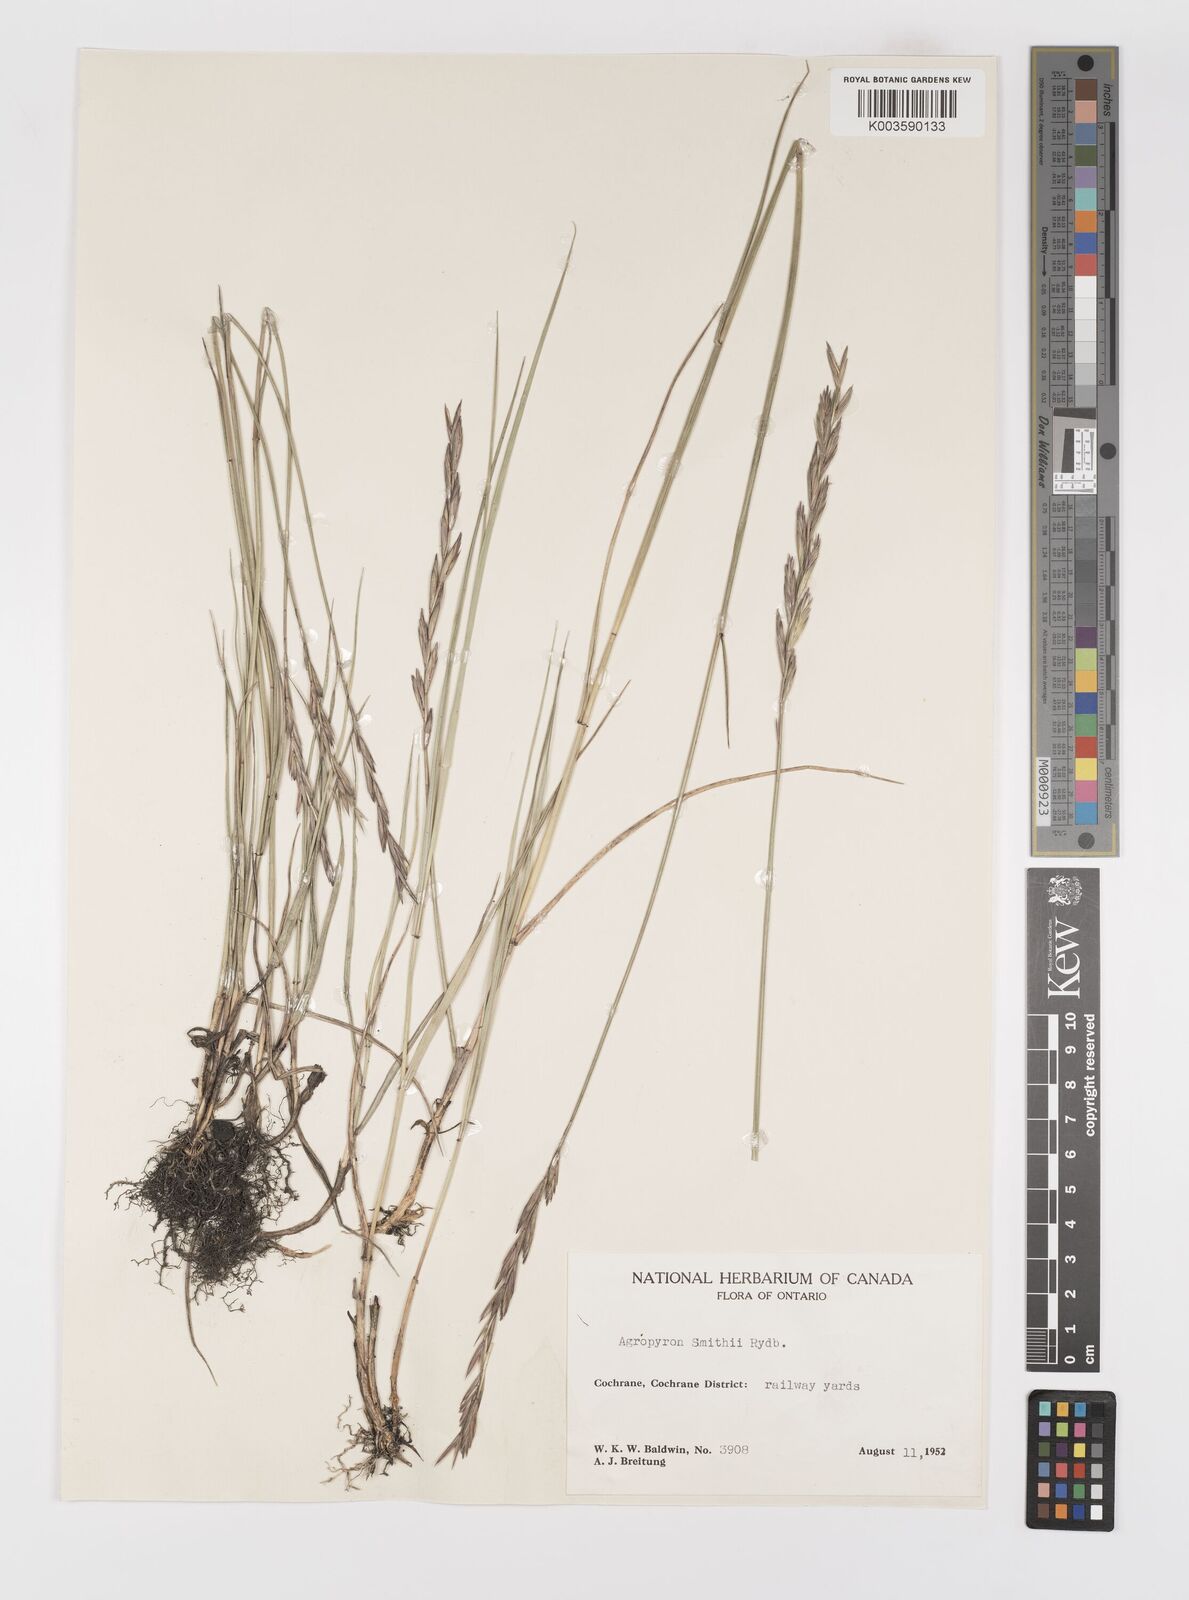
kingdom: Plantae
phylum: Tracheophyta
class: Liliopsida
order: Poales
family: Poaceae
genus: Elymus
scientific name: Elymus smithii
